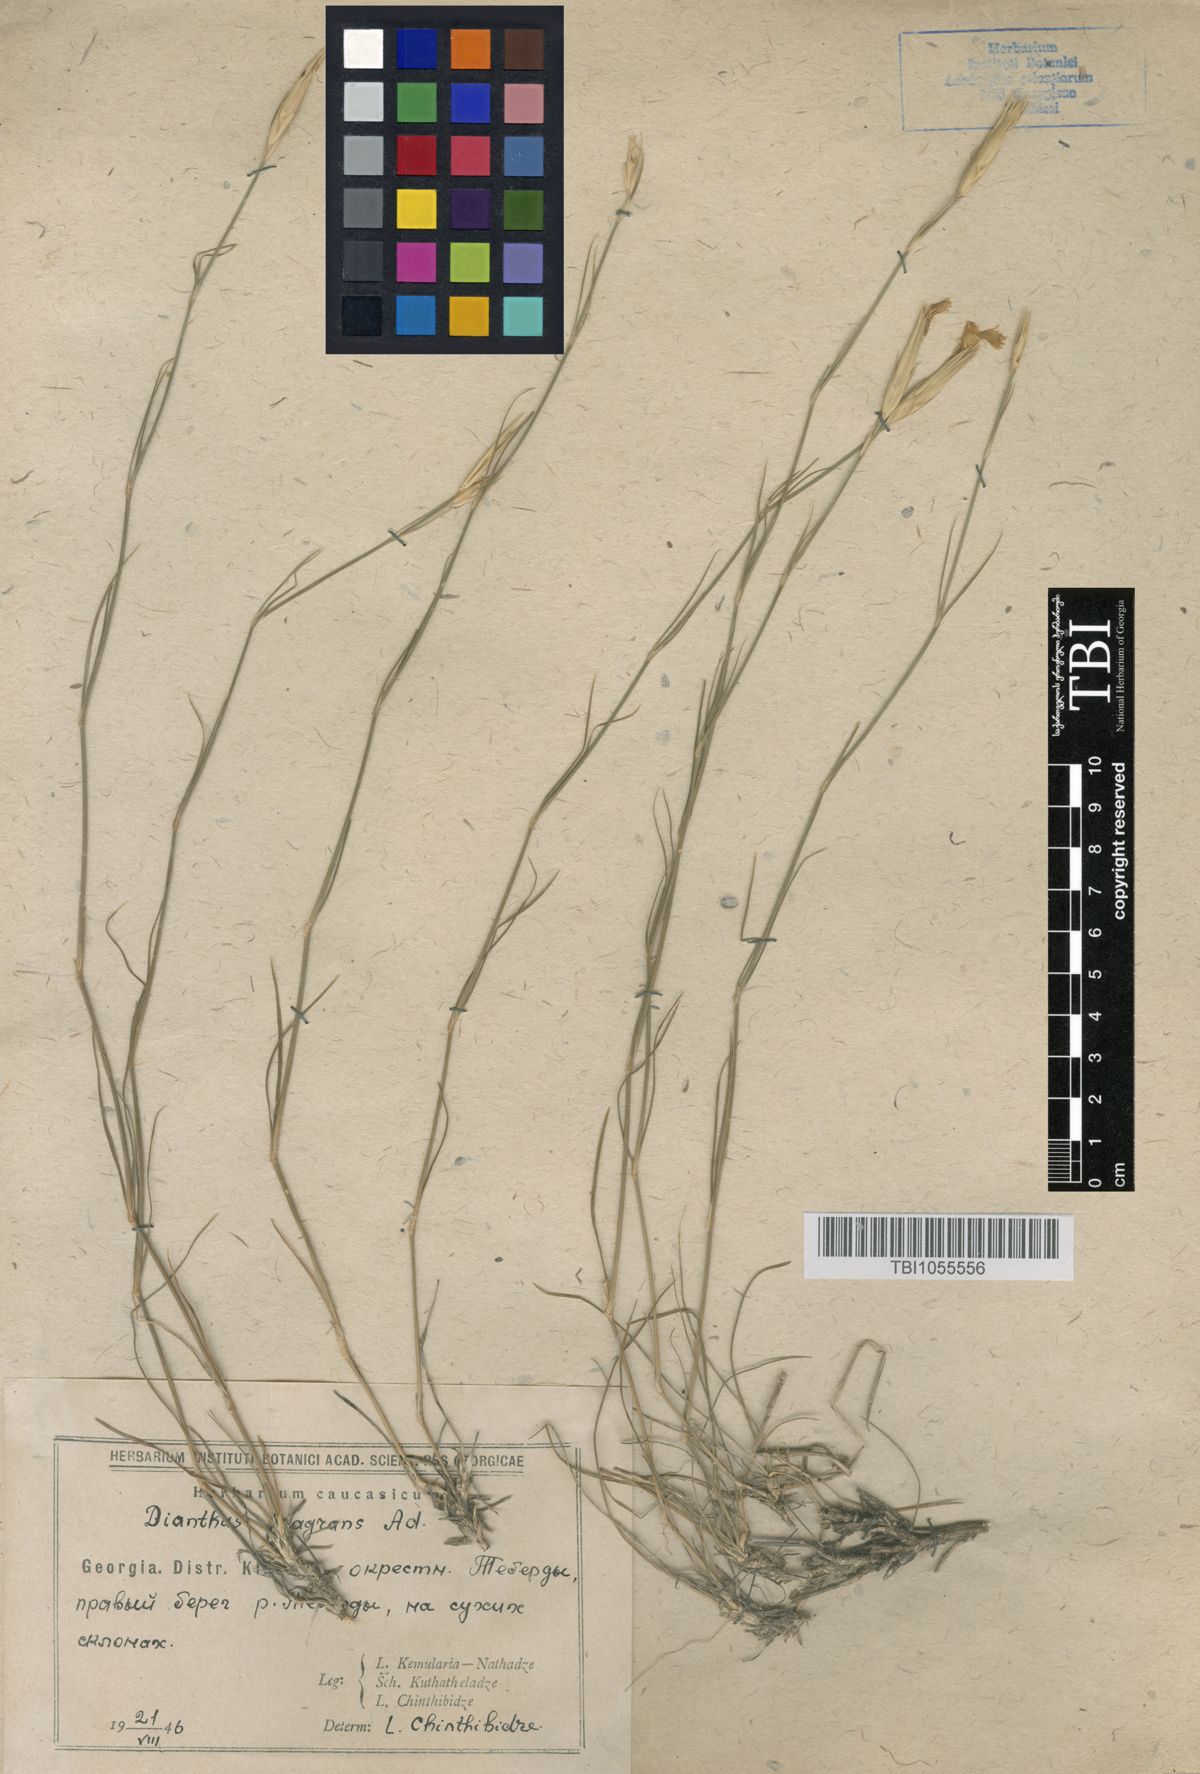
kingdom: Plantae
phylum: Tracheophyta
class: Magnoliopsida
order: Caryophyllales
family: Caryophyllaceae
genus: Dianthus
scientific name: Dianthus
